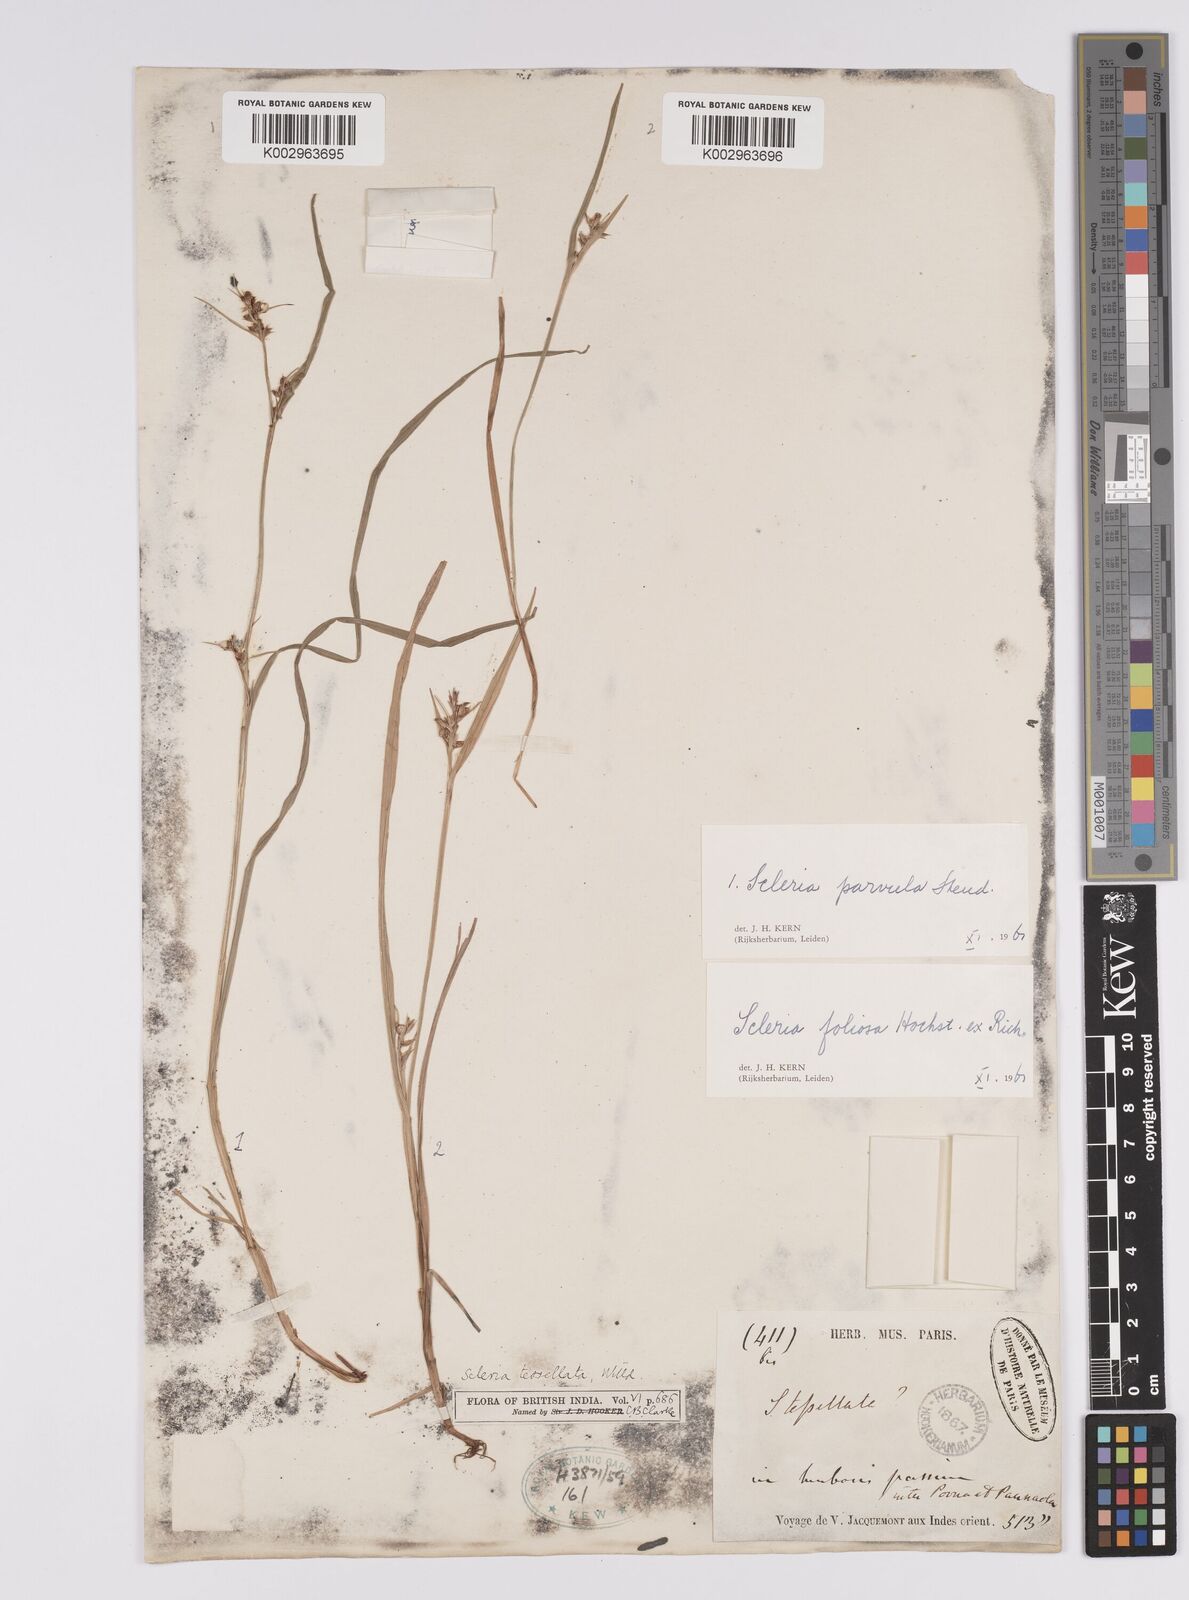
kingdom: Plantae
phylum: Tracheophyta
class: Liliopsida
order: Poales
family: Cyperaceae
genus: Scleria
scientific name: Scleria foliosa
